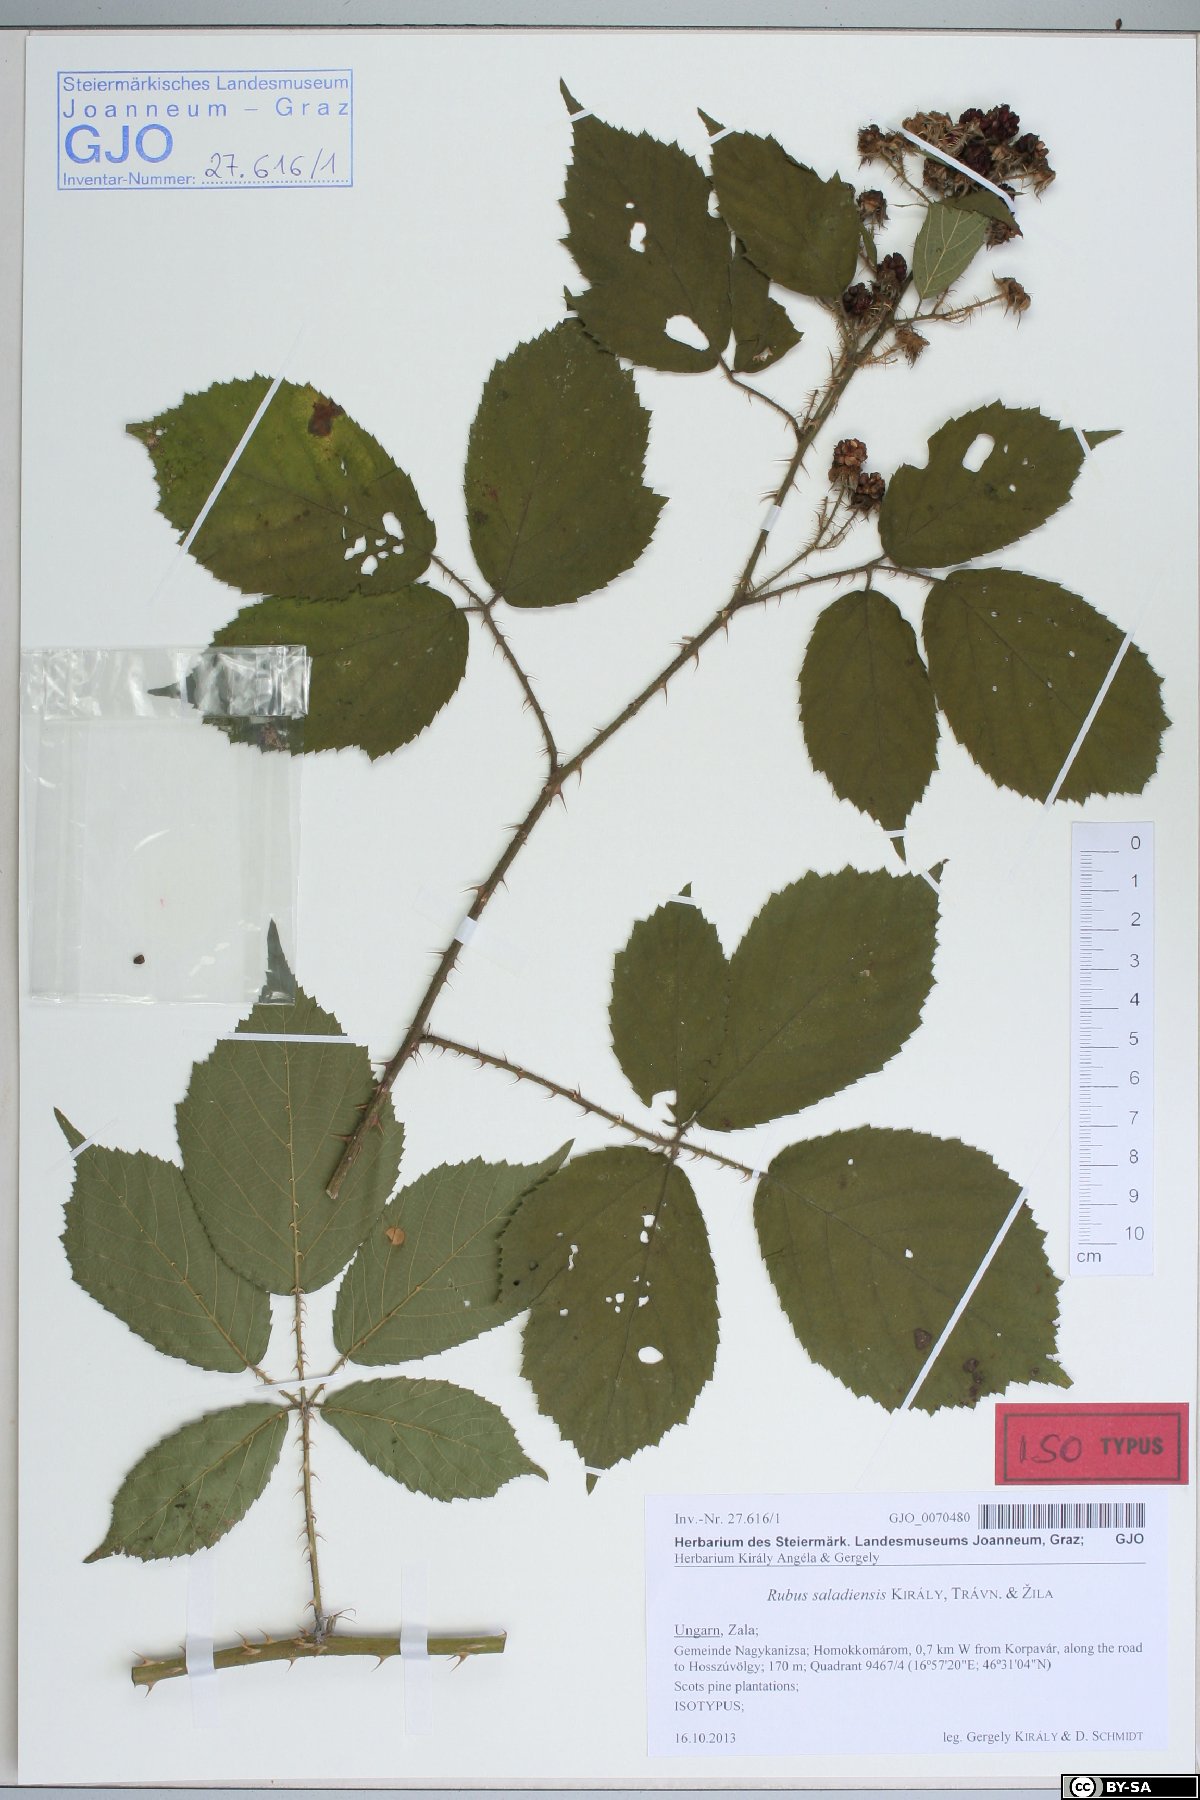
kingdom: Plantae
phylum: Tracheophyta
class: Magnoliopsida
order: Rosales
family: Rosaceae
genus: Rubus
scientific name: Rubus saladiensis
